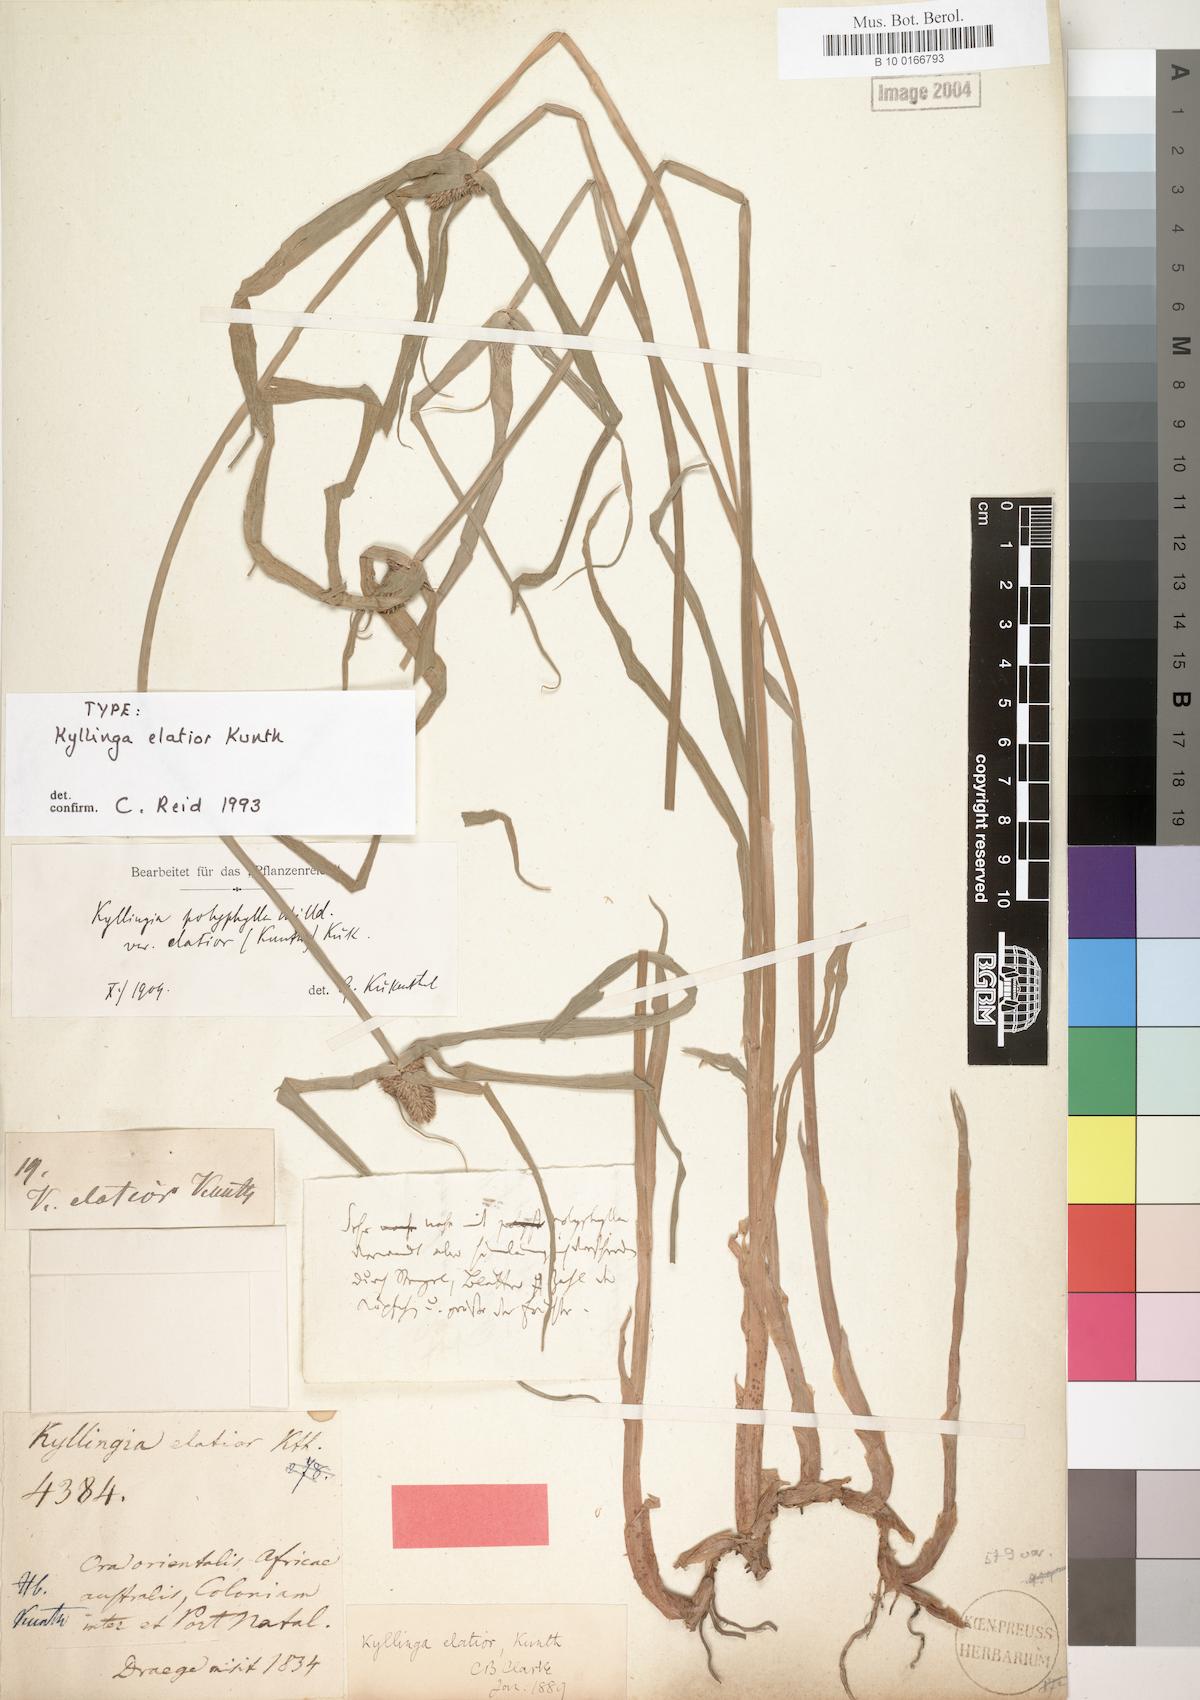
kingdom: Plantae
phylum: Tracheophyta
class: Liliopsida
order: Poales
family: Cyperaceae
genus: Cyperus
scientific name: Cyperus ruwenzoriensis
